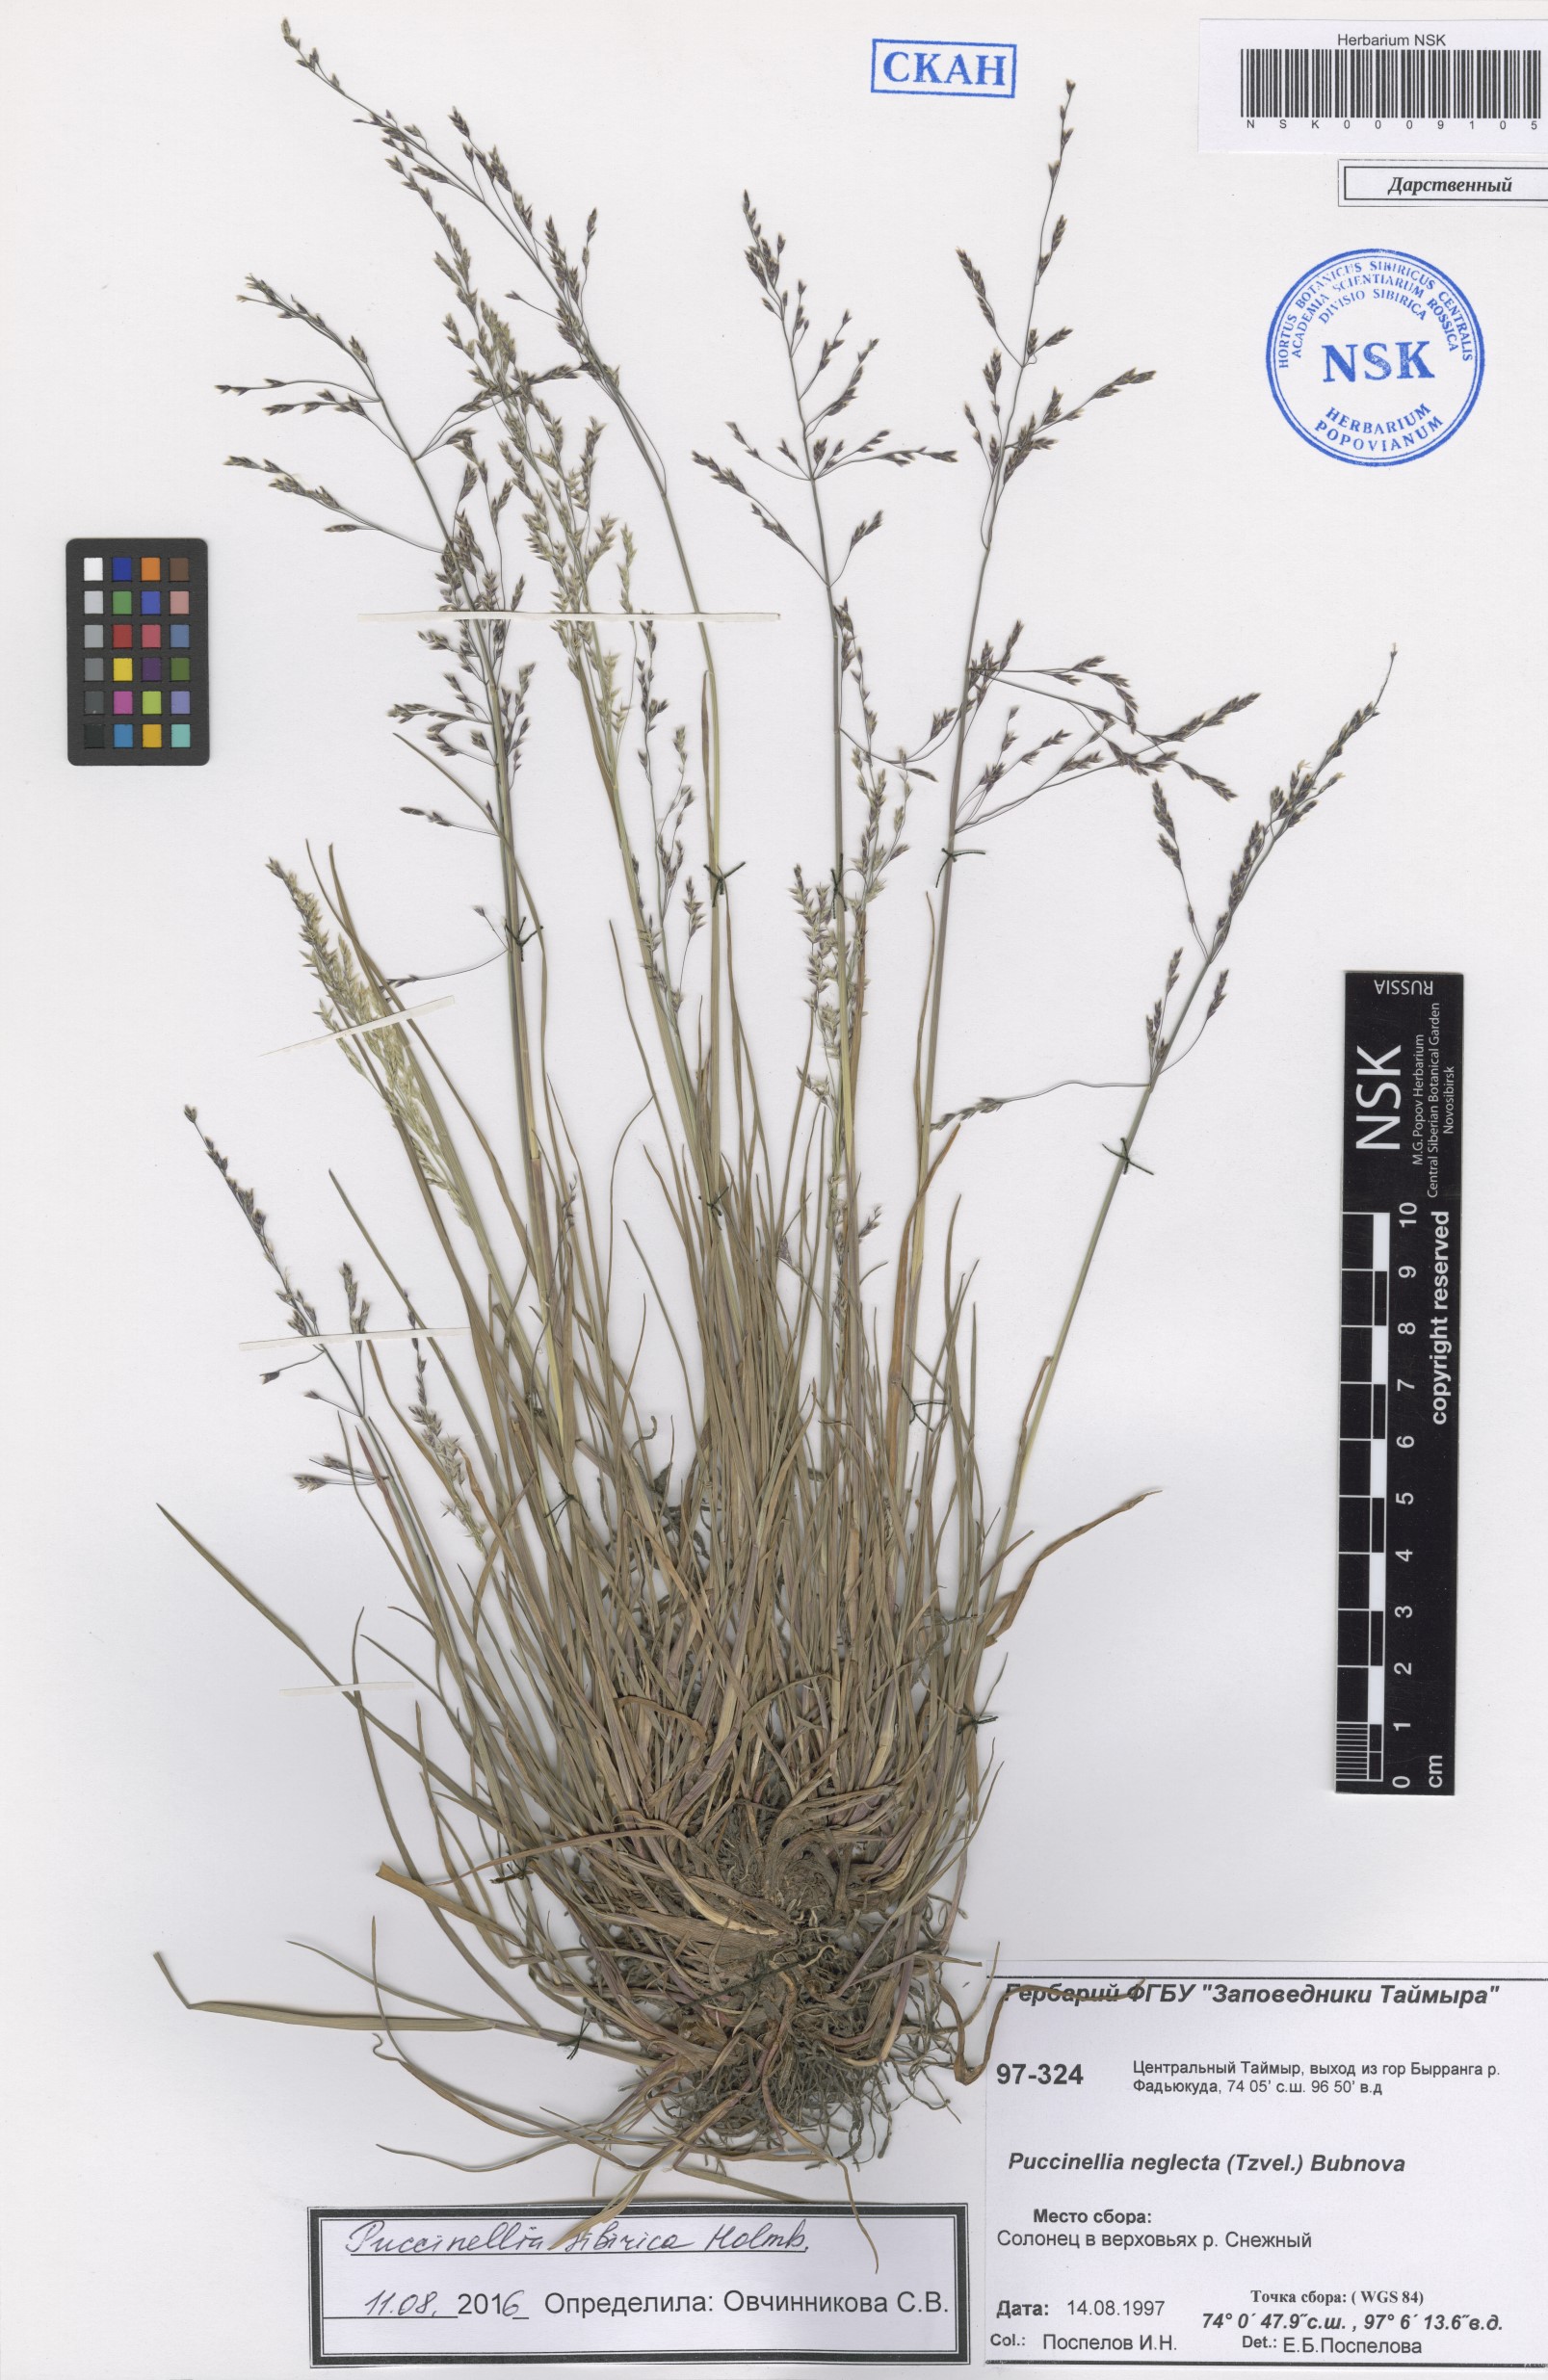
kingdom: Plantae
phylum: Tracheophyta
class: Liliopsida
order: Poales
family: Poaceae
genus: Puccinellia
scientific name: Puccinellia sibirica
